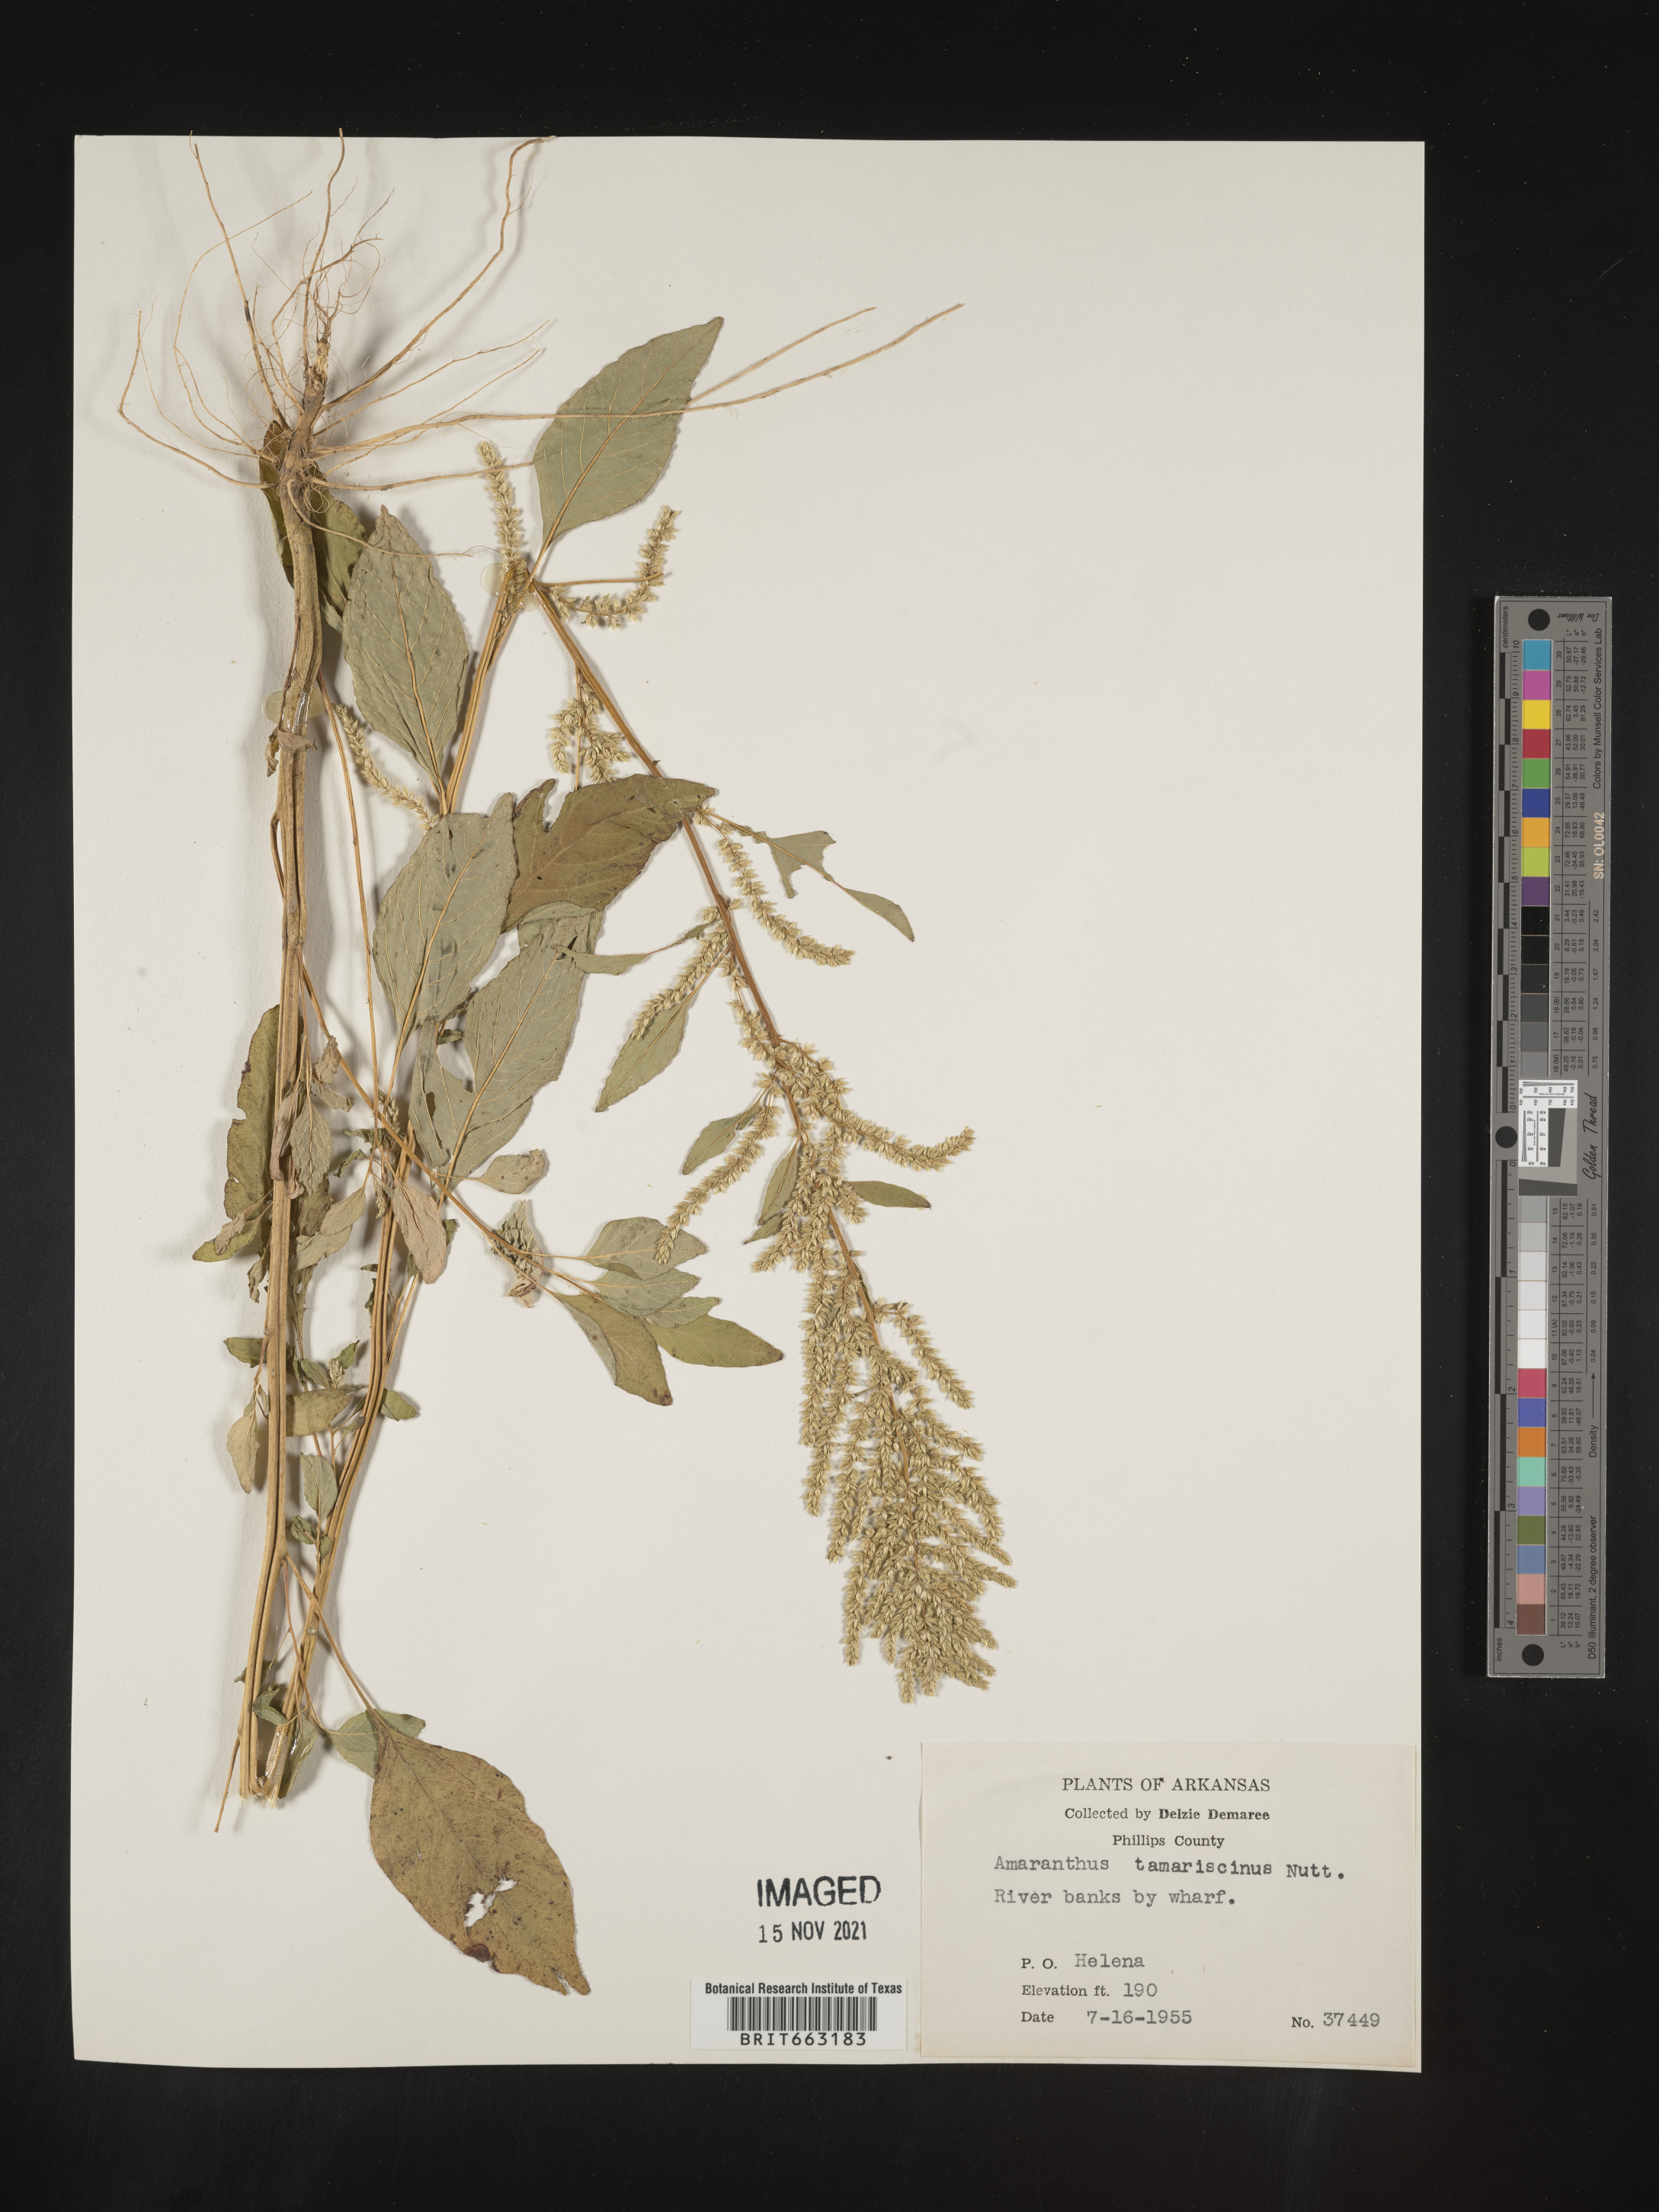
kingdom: Plantae
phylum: Tracheophyta
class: Magnoliopsida
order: Caryophyllales
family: Amaranthaceae
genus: Amaranthus
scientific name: Amaranthus tamariscinus
